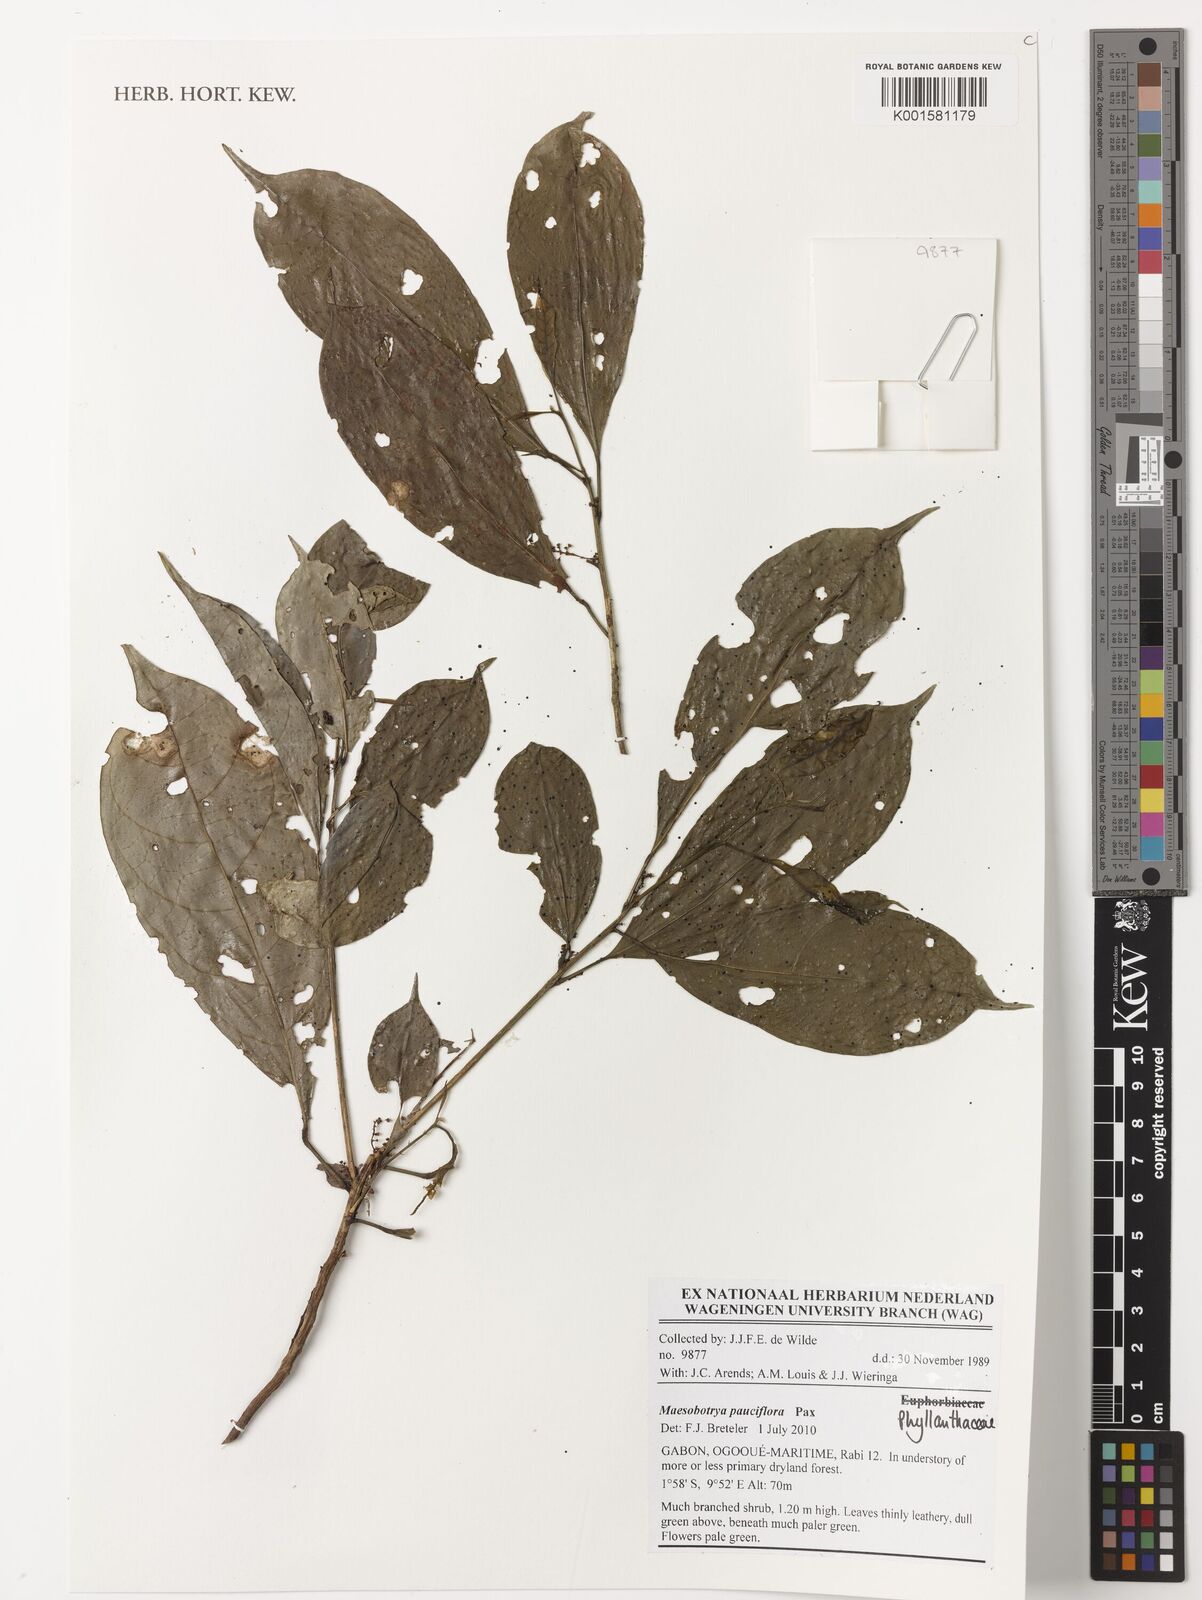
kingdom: Plantae
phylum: Tracheophyta
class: Magnoliopsida
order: Malpighiales
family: Phyllanthaceae
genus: Maesobotrya
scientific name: Maesobotrya pauciflora
